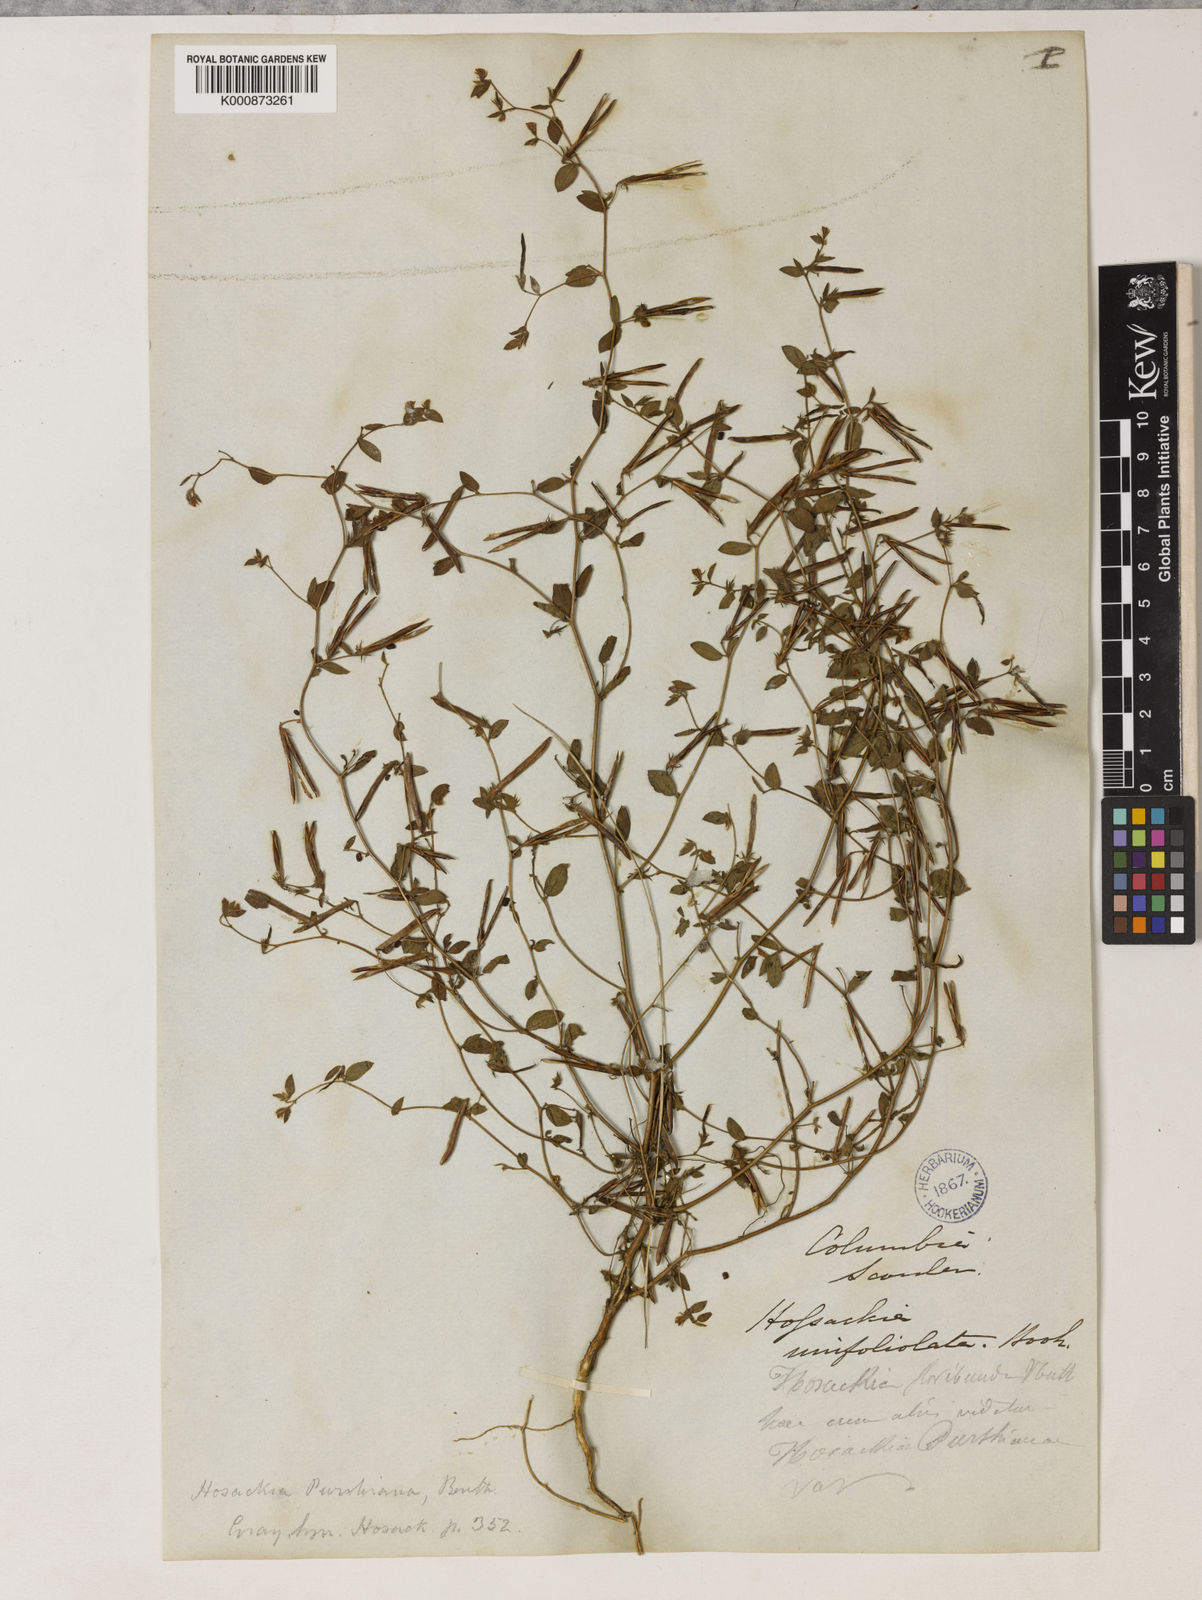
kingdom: Plantae
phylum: Tracheophyta
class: Magnoliopsida
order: Fabales
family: Fabaceae
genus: Collaea
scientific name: Collaea speciosa
